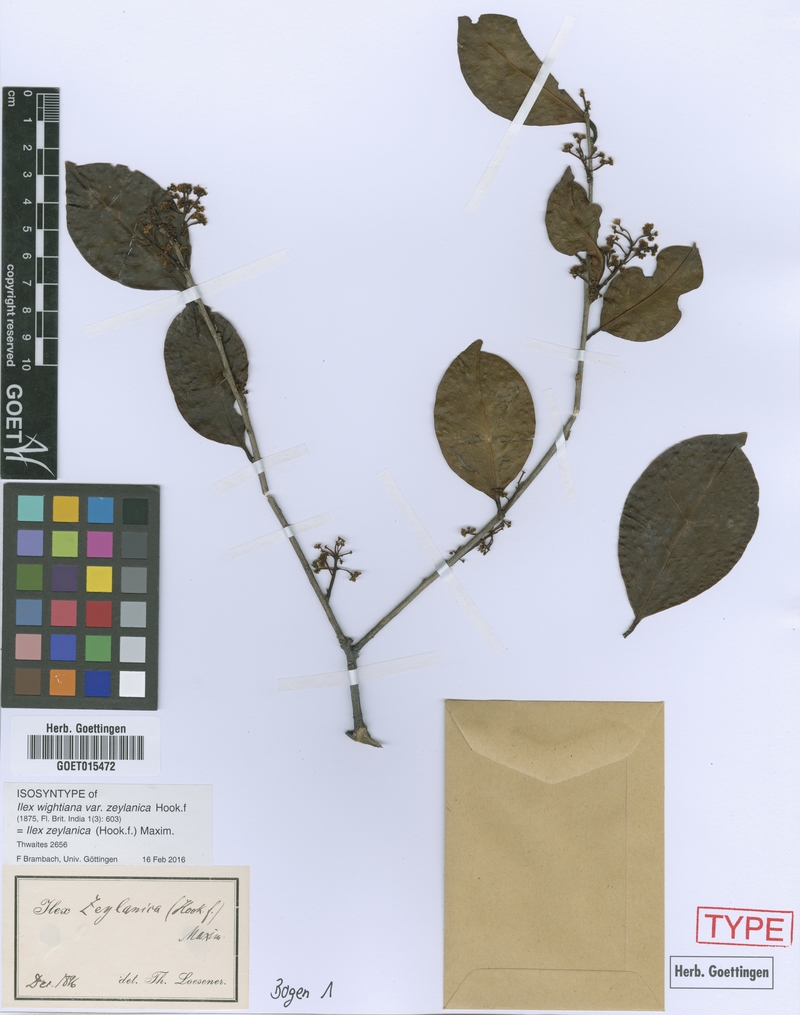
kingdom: Plantae
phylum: Tracheophyta
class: Magnoliopsida
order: Aquifoliales
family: Aquifoliaceae
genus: Ilex
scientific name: Ilex zeylanica
